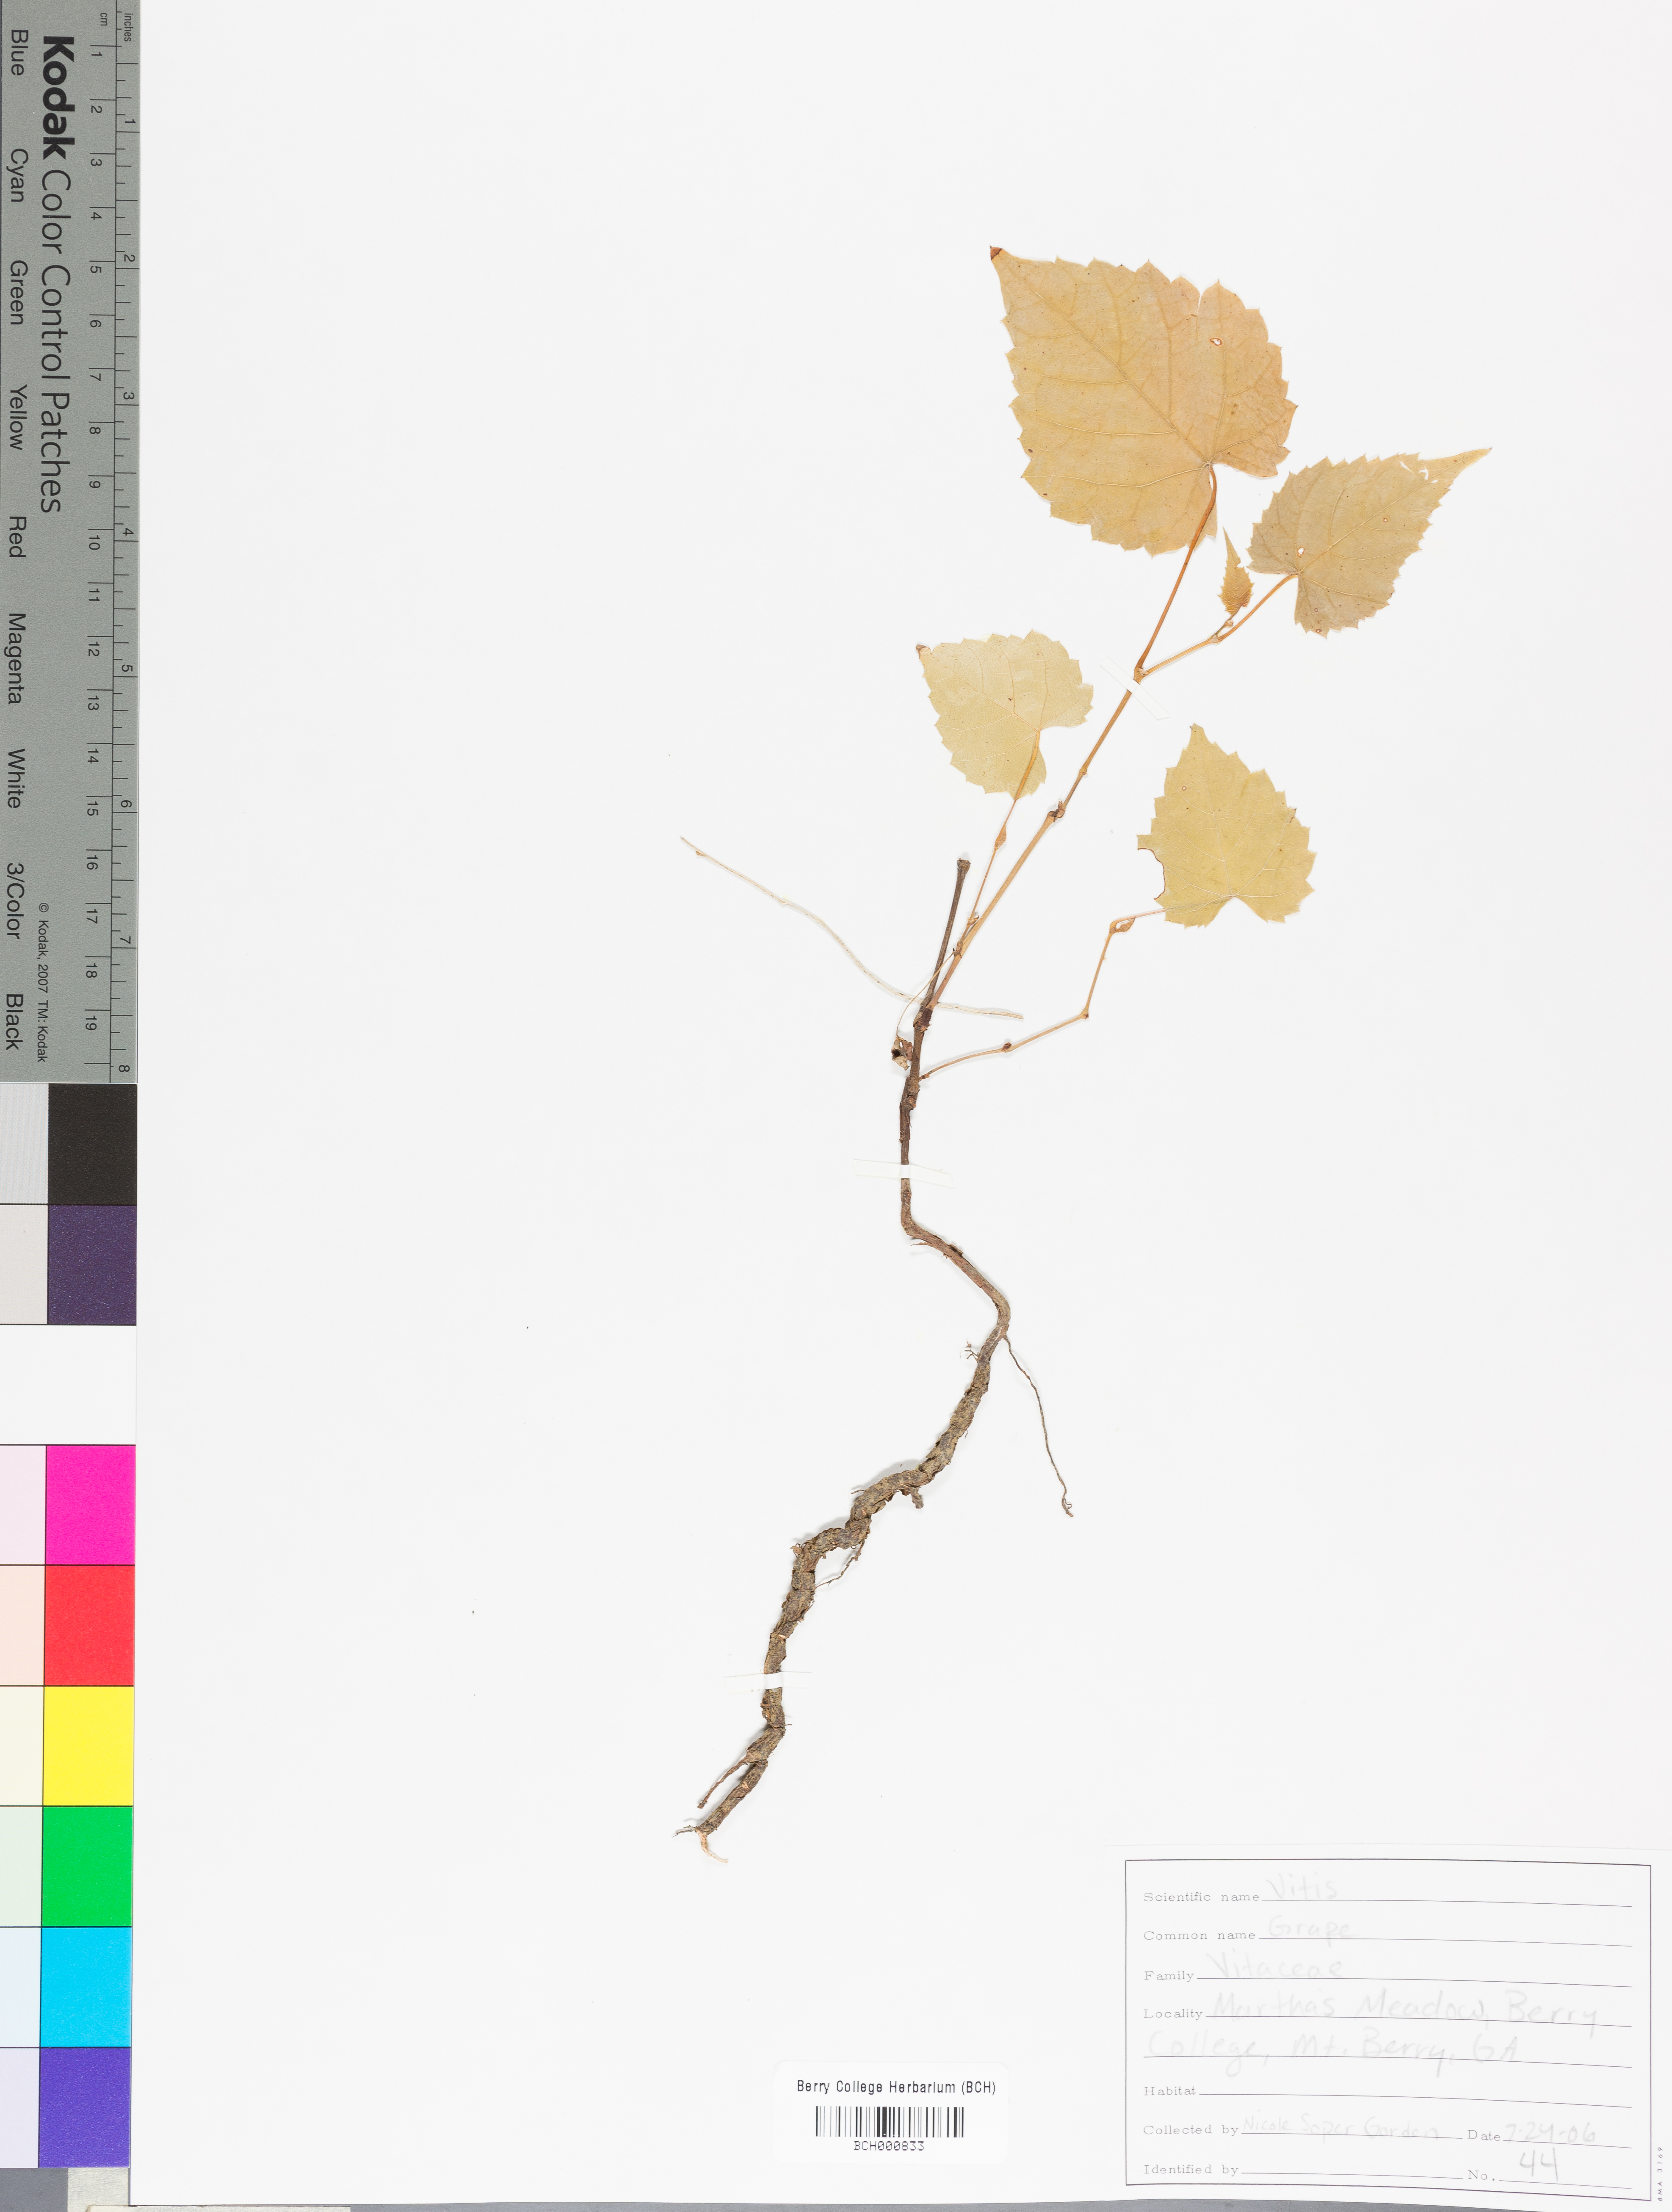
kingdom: Plantae
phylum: Tracheophyta
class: Magnoliopsida
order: Vitales
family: Vitaceae
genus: Parthenocissus
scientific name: Parthenocissus quinquefolia
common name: Virginia-creeper
